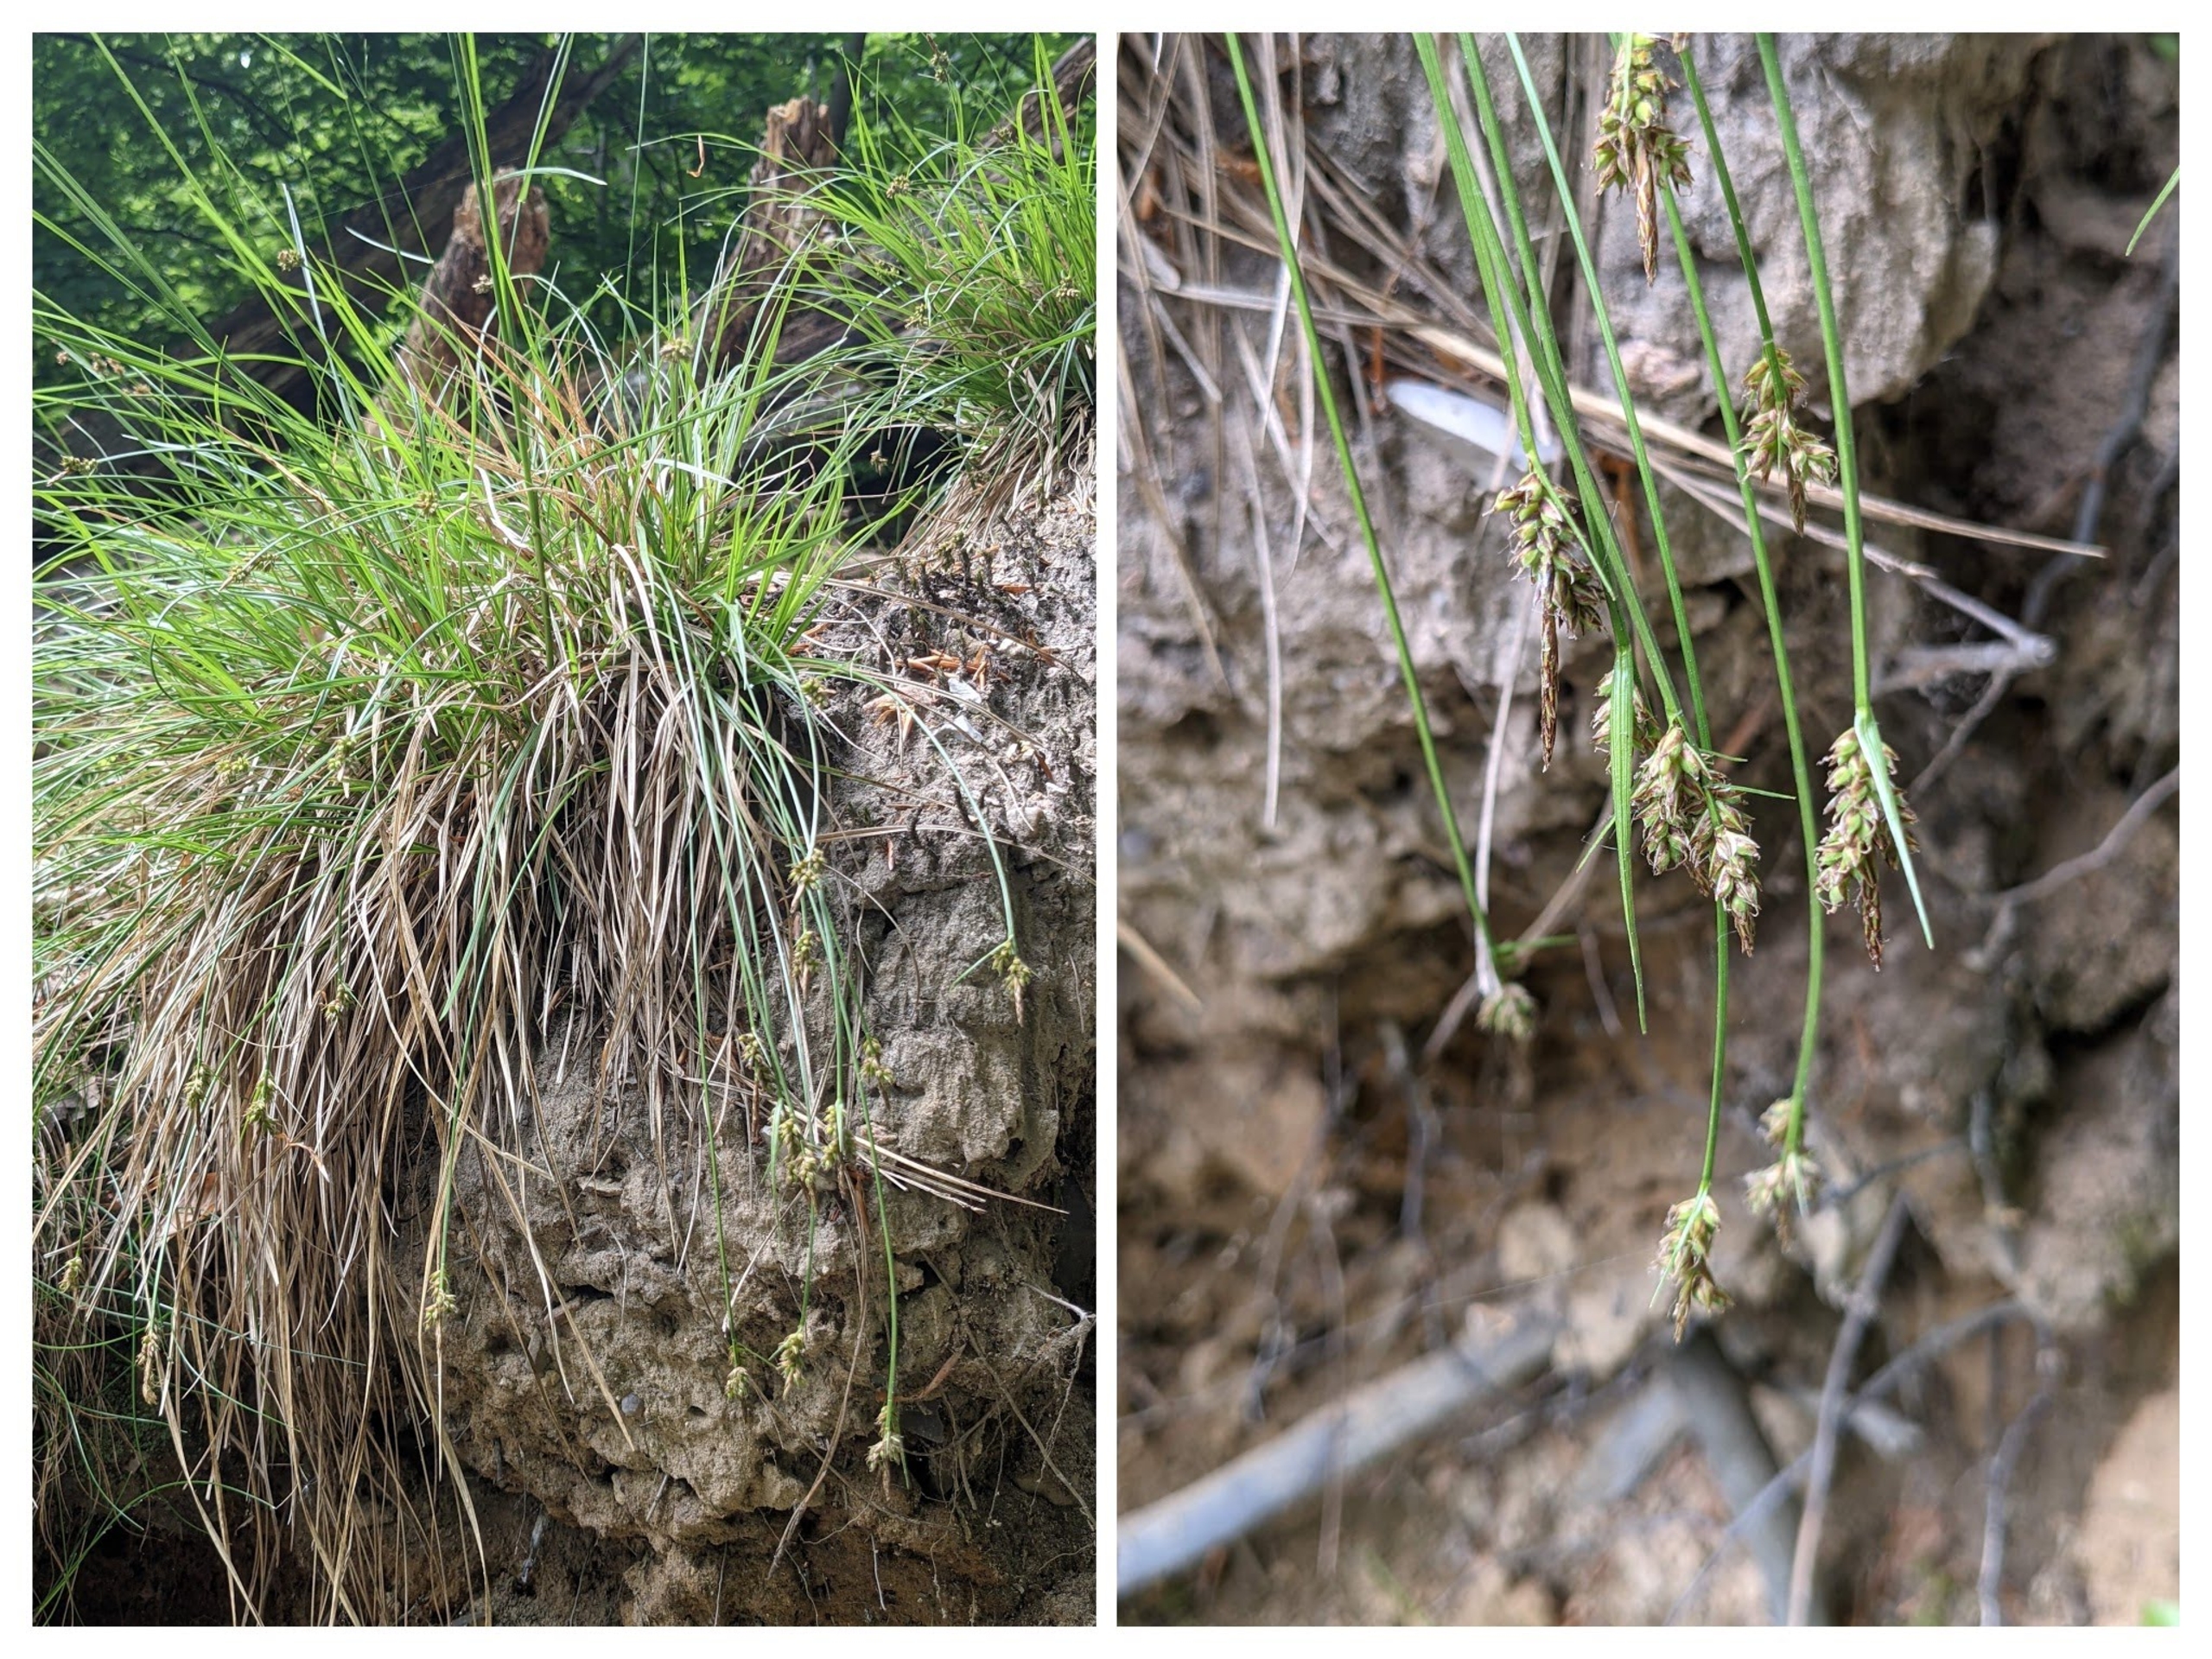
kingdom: Plantae
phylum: Tracheophyta
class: Liliopsida
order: Poales
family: Cyperaceae
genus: Carex
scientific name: Carex pilulifera
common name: Pille-star
